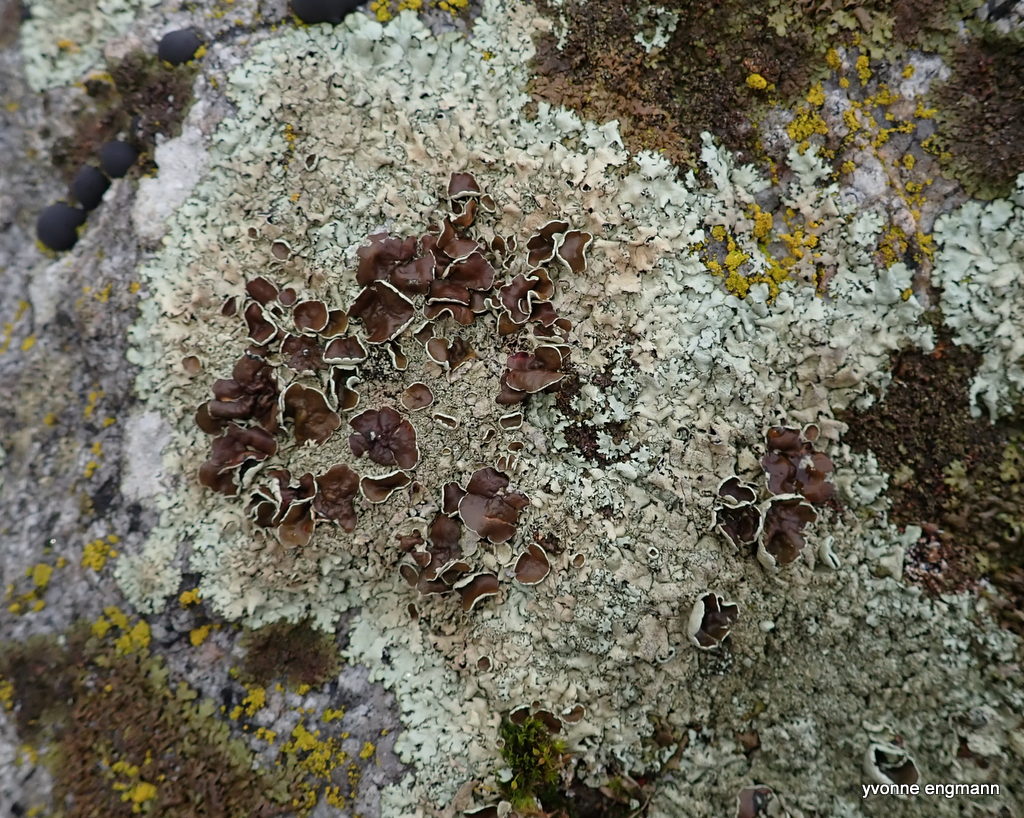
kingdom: Fungi
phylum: Ascomycota
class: Lecanoromycetes
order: Lecanorales
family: Parmeliaceae
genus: Xanthoparmelia
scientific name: Xanthoparmelia conspersa
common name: messing-skållav
